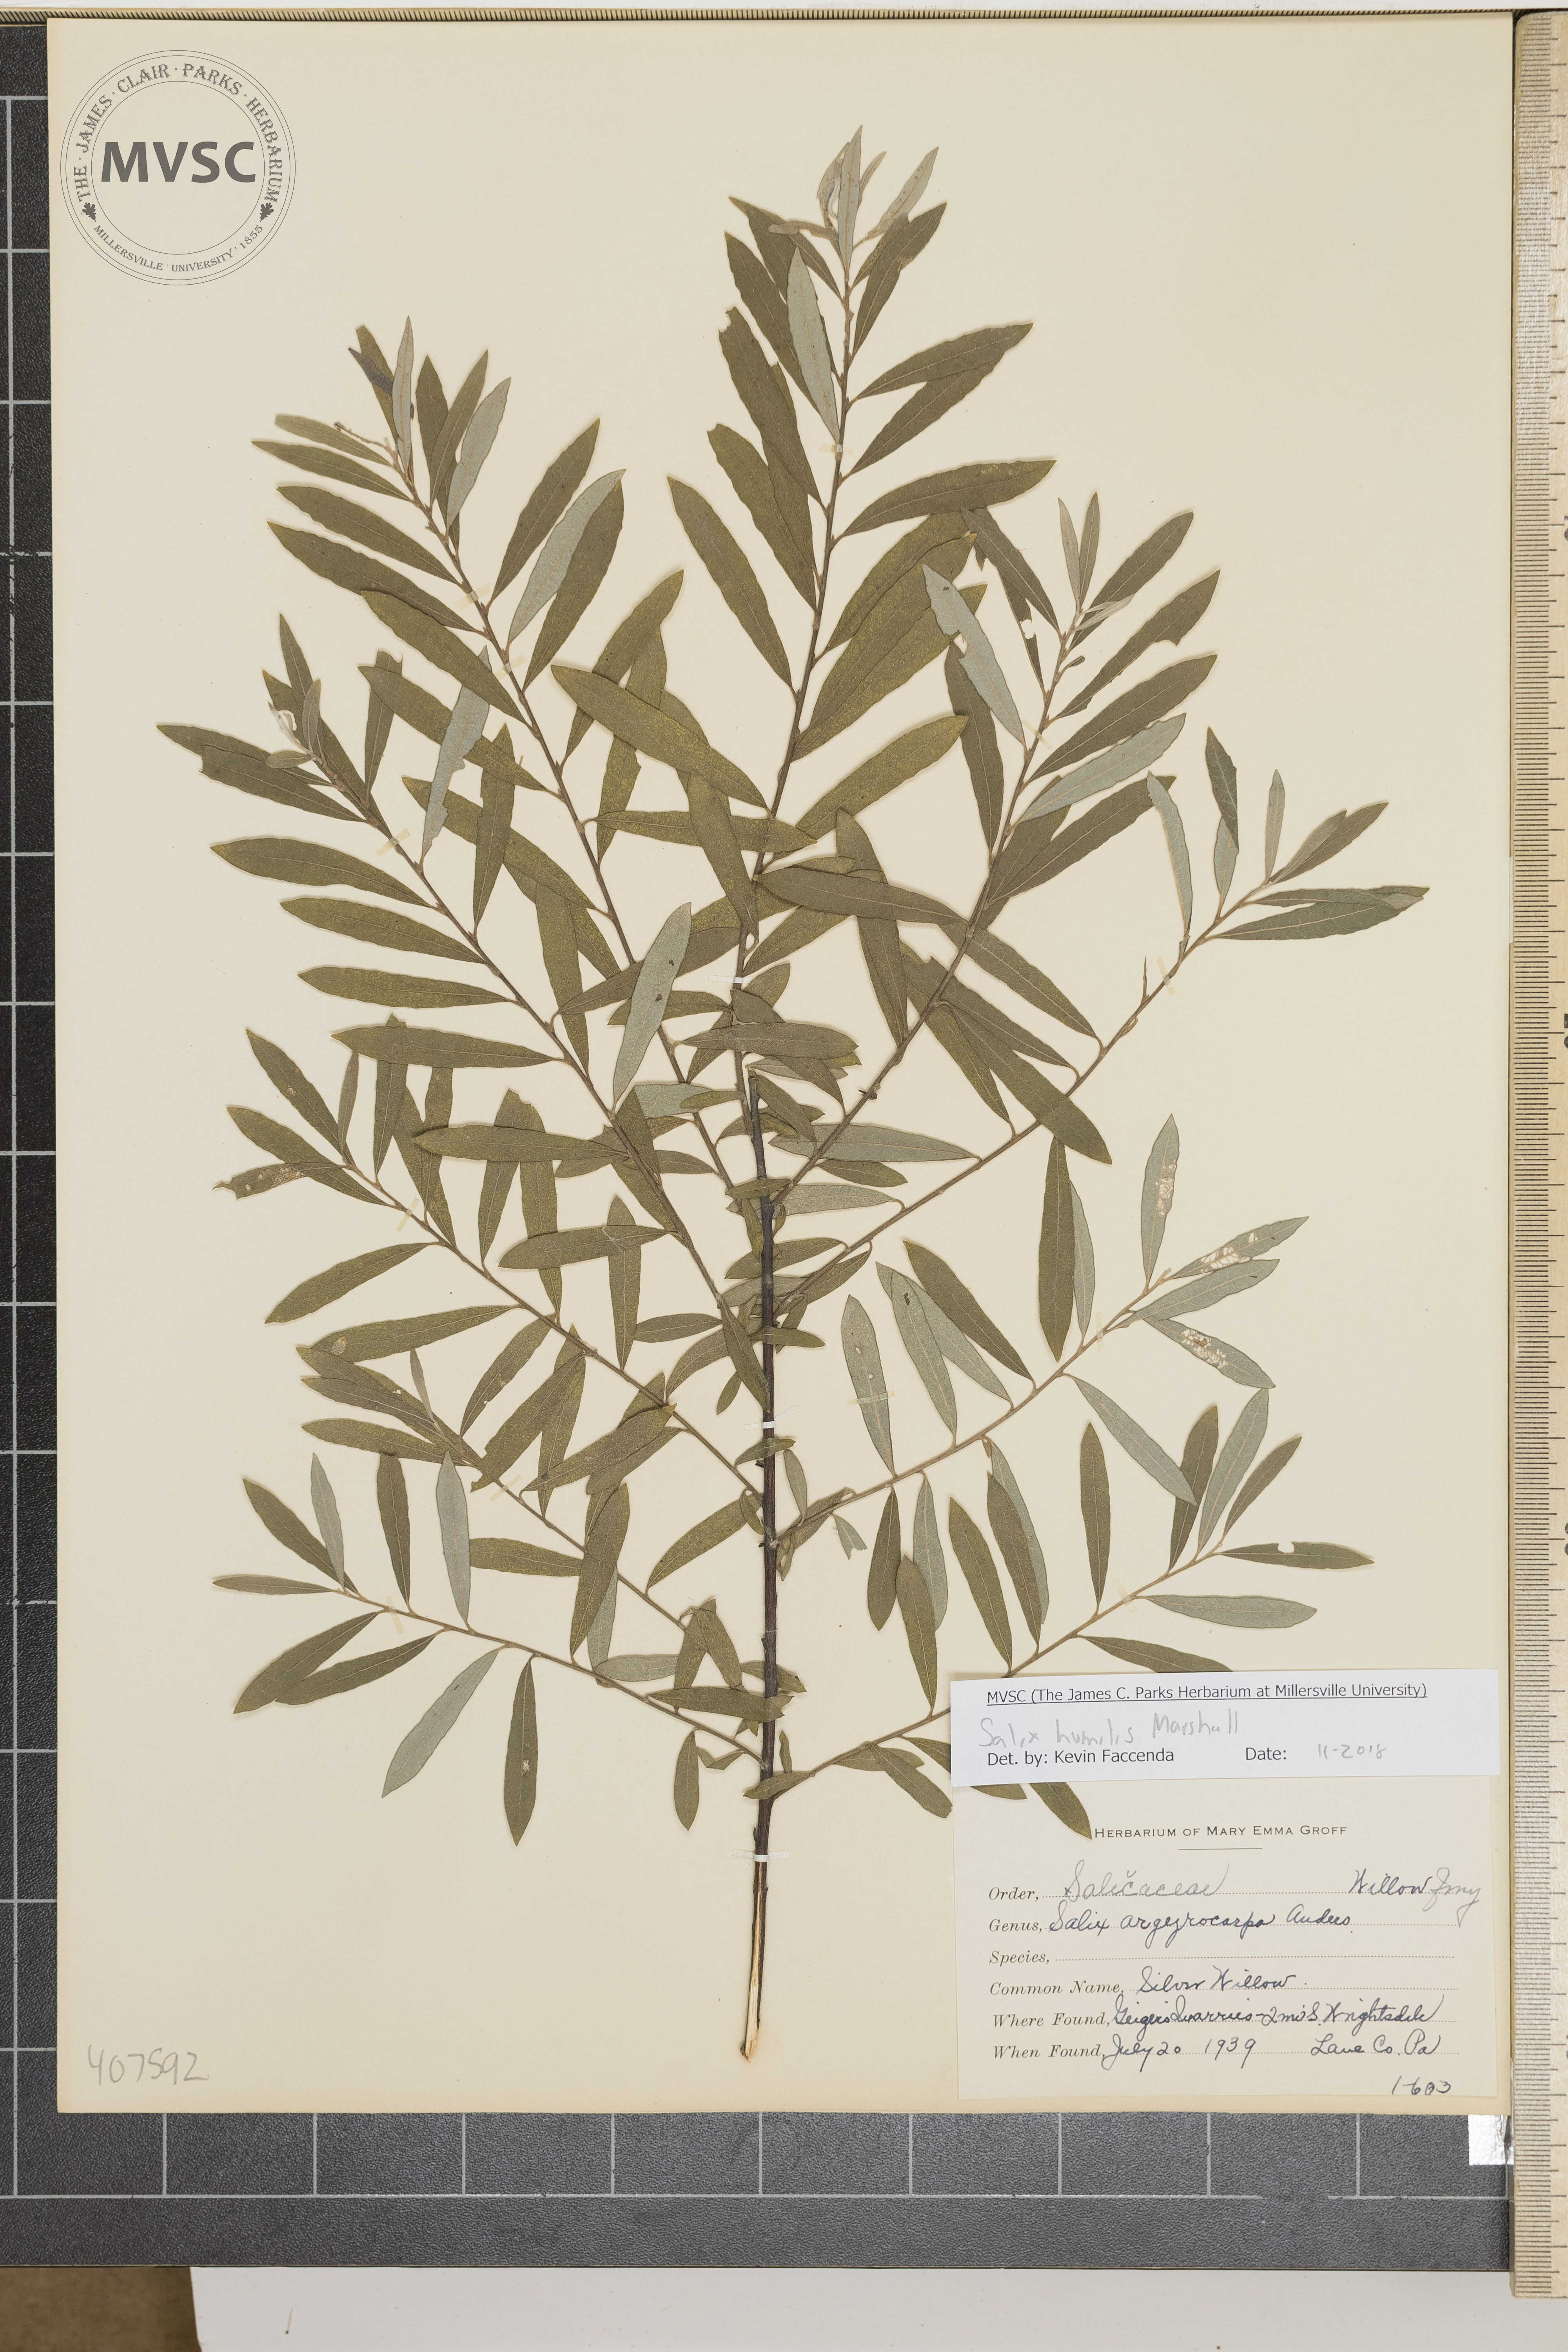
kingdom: Plantae
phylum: Tracheophyta
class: Magnoliopsida
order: Malpighiales
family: Salicaceae
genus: Salix
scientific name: Salix humilis
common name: Silver Willow
